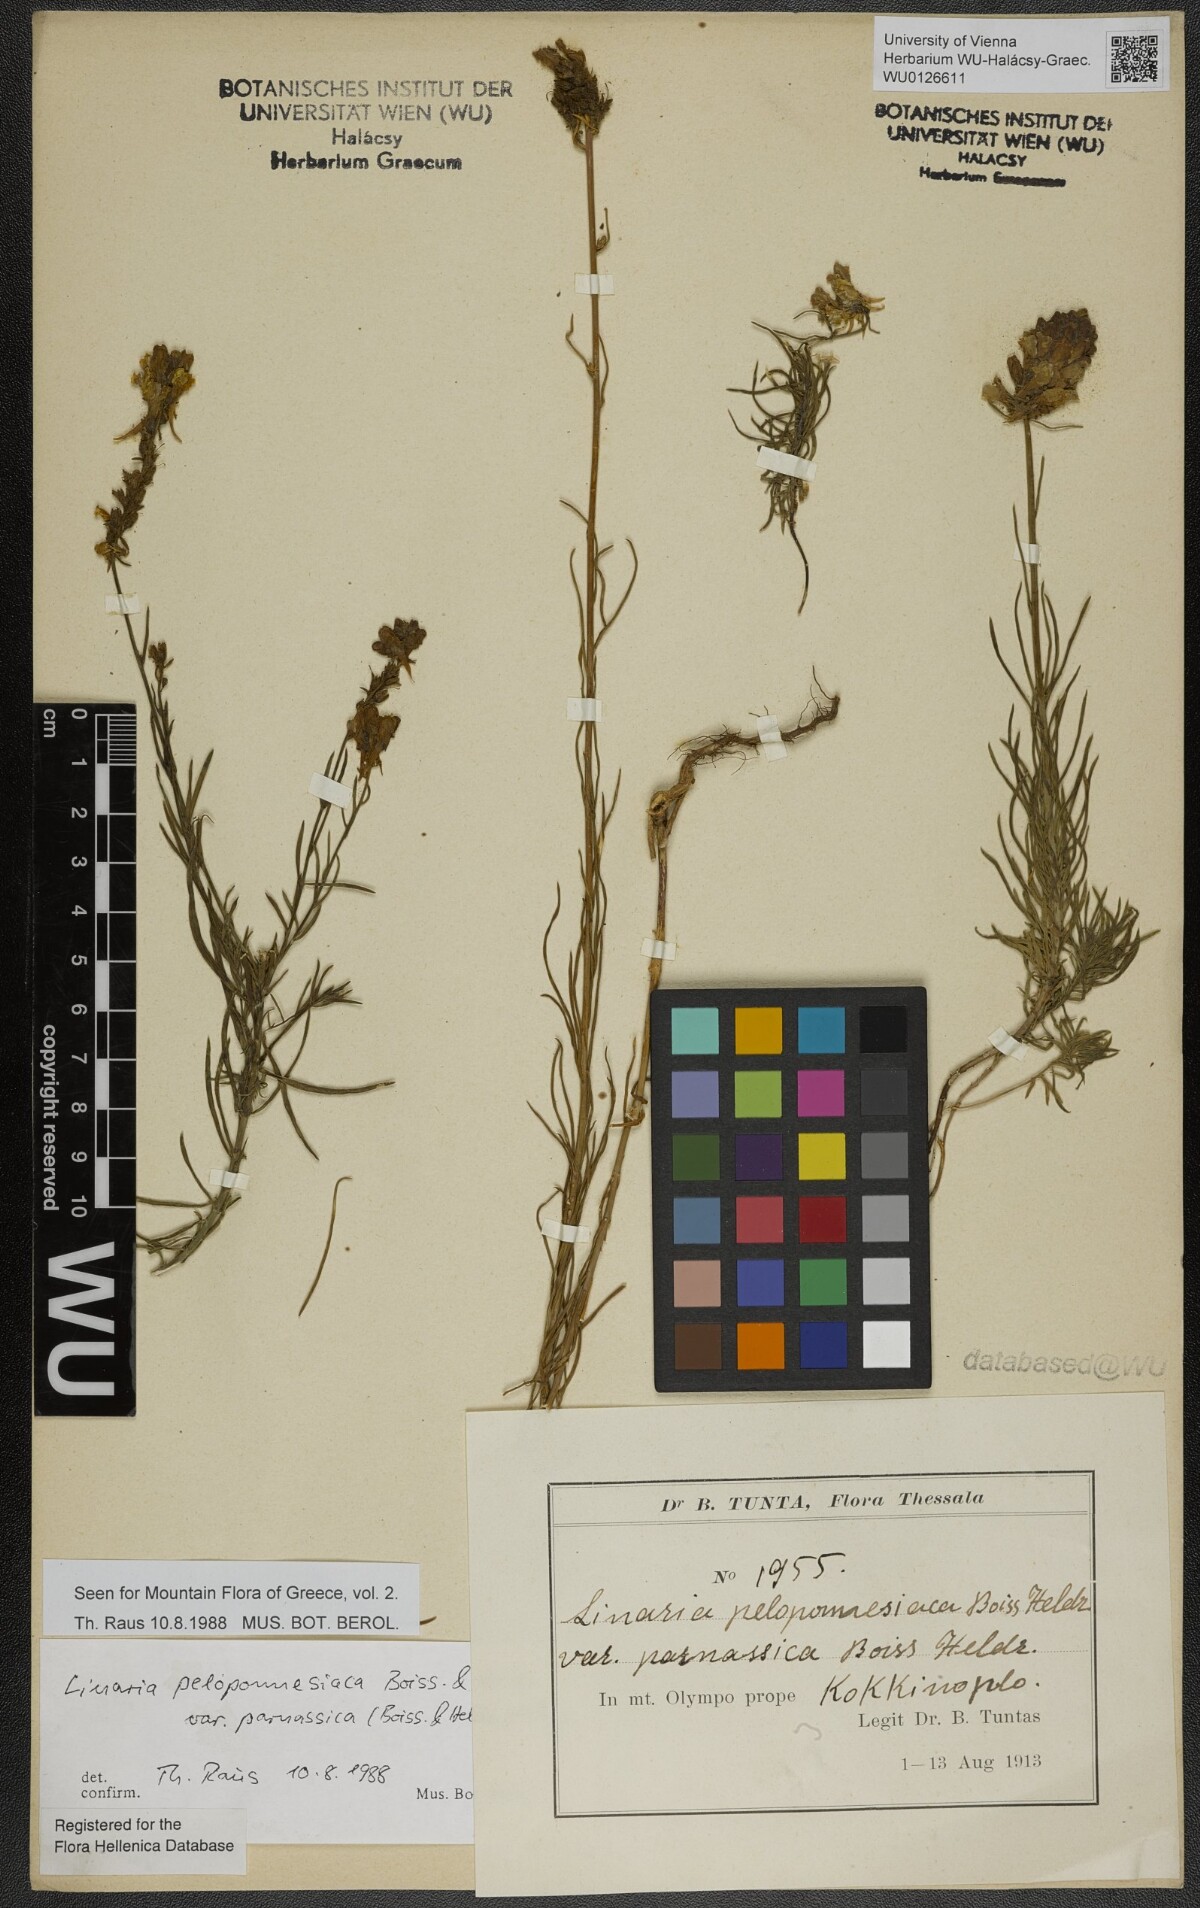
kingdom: Plantae
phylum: Tracheophyta
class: Magnoliopsida
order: Lamiales
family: Plantaginaceae
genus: Linaria
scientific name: Linaria peloponnesiaca
